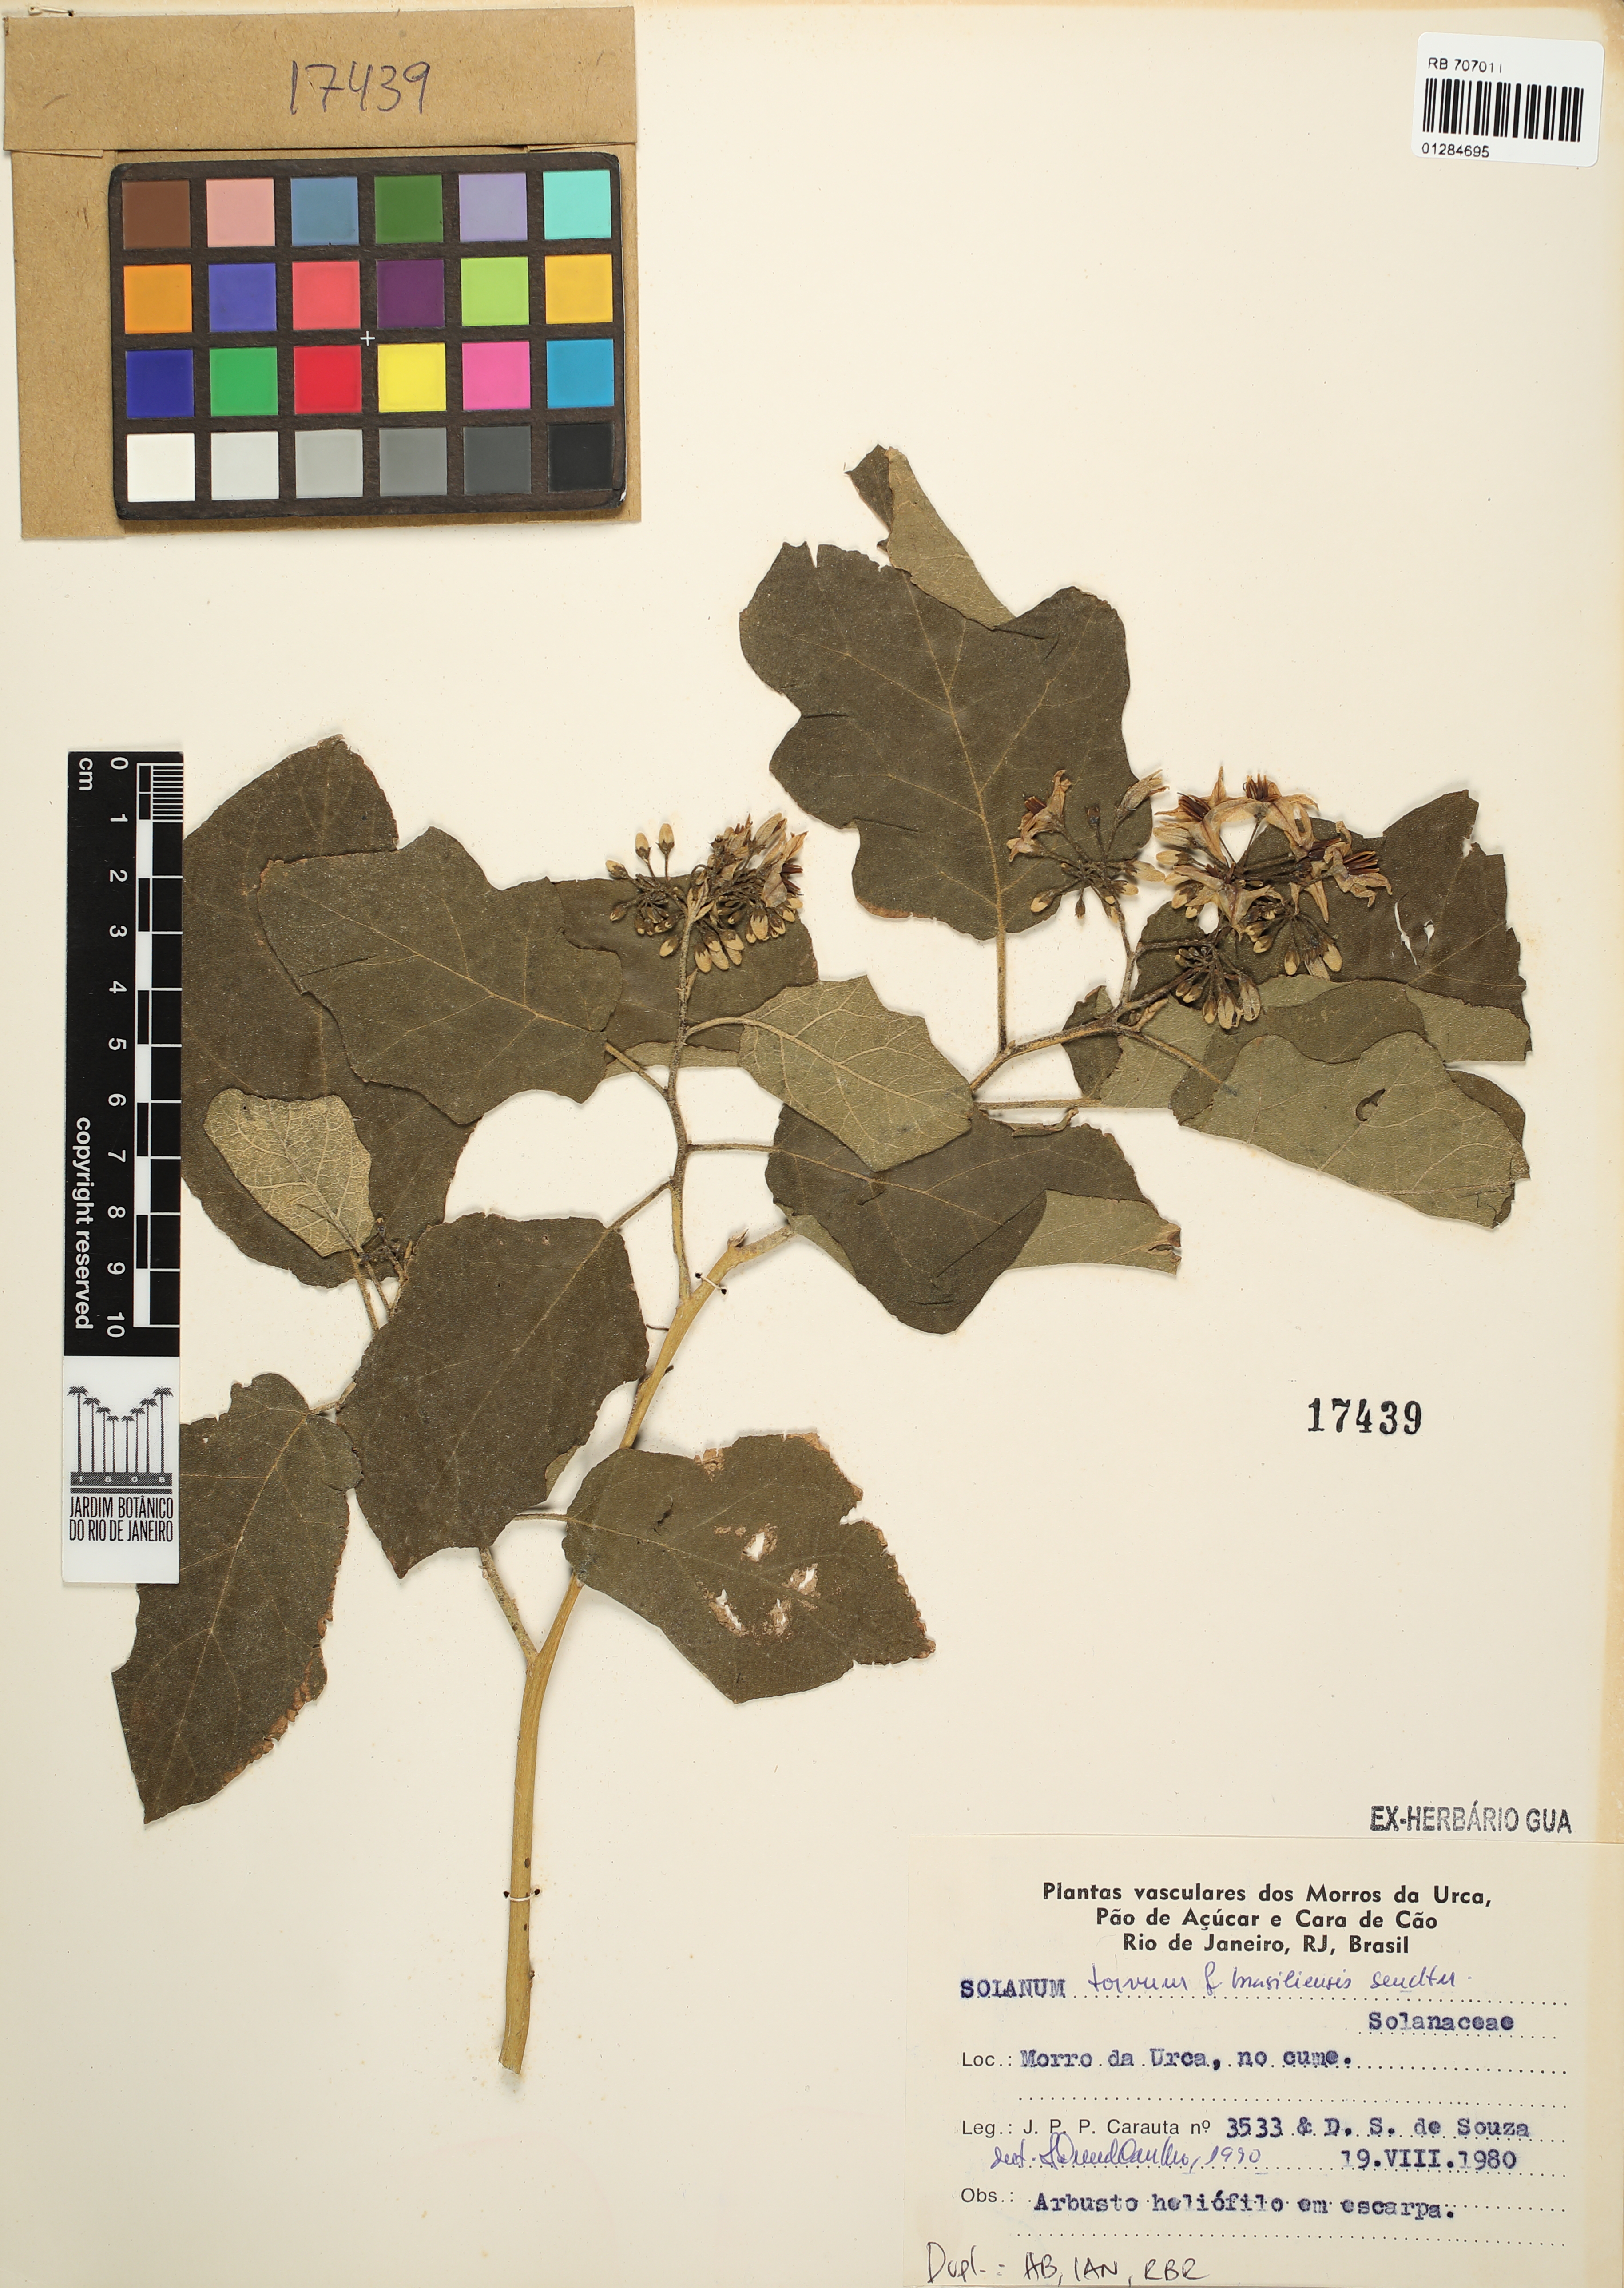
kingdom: Plantae
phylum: Tracheophyta
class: Magnoliopsida
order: Solanales
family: Solanaceae
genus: Solanum
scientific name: Solanum scuticum
